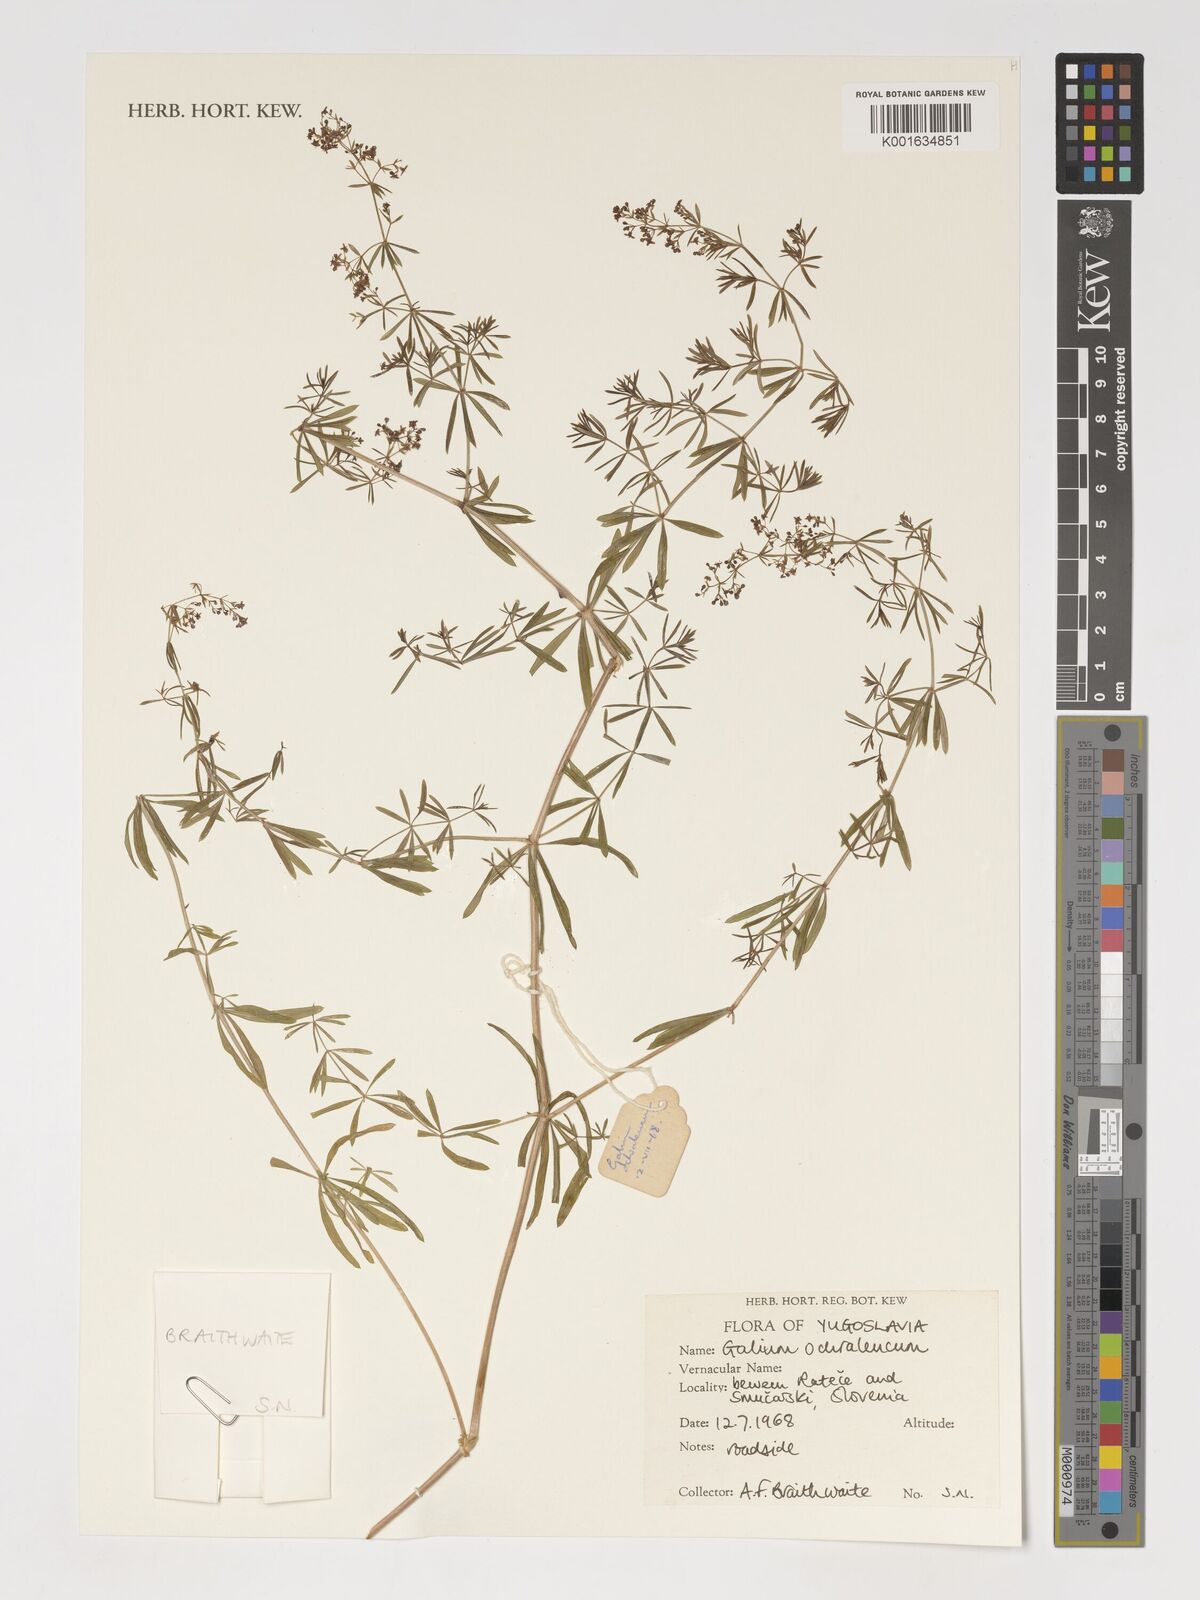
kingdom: Plantae
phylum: Tracheophyta
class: Magnoliopsida
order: Gentianales
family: Rubiaceae
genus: Galium
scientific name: Galium
